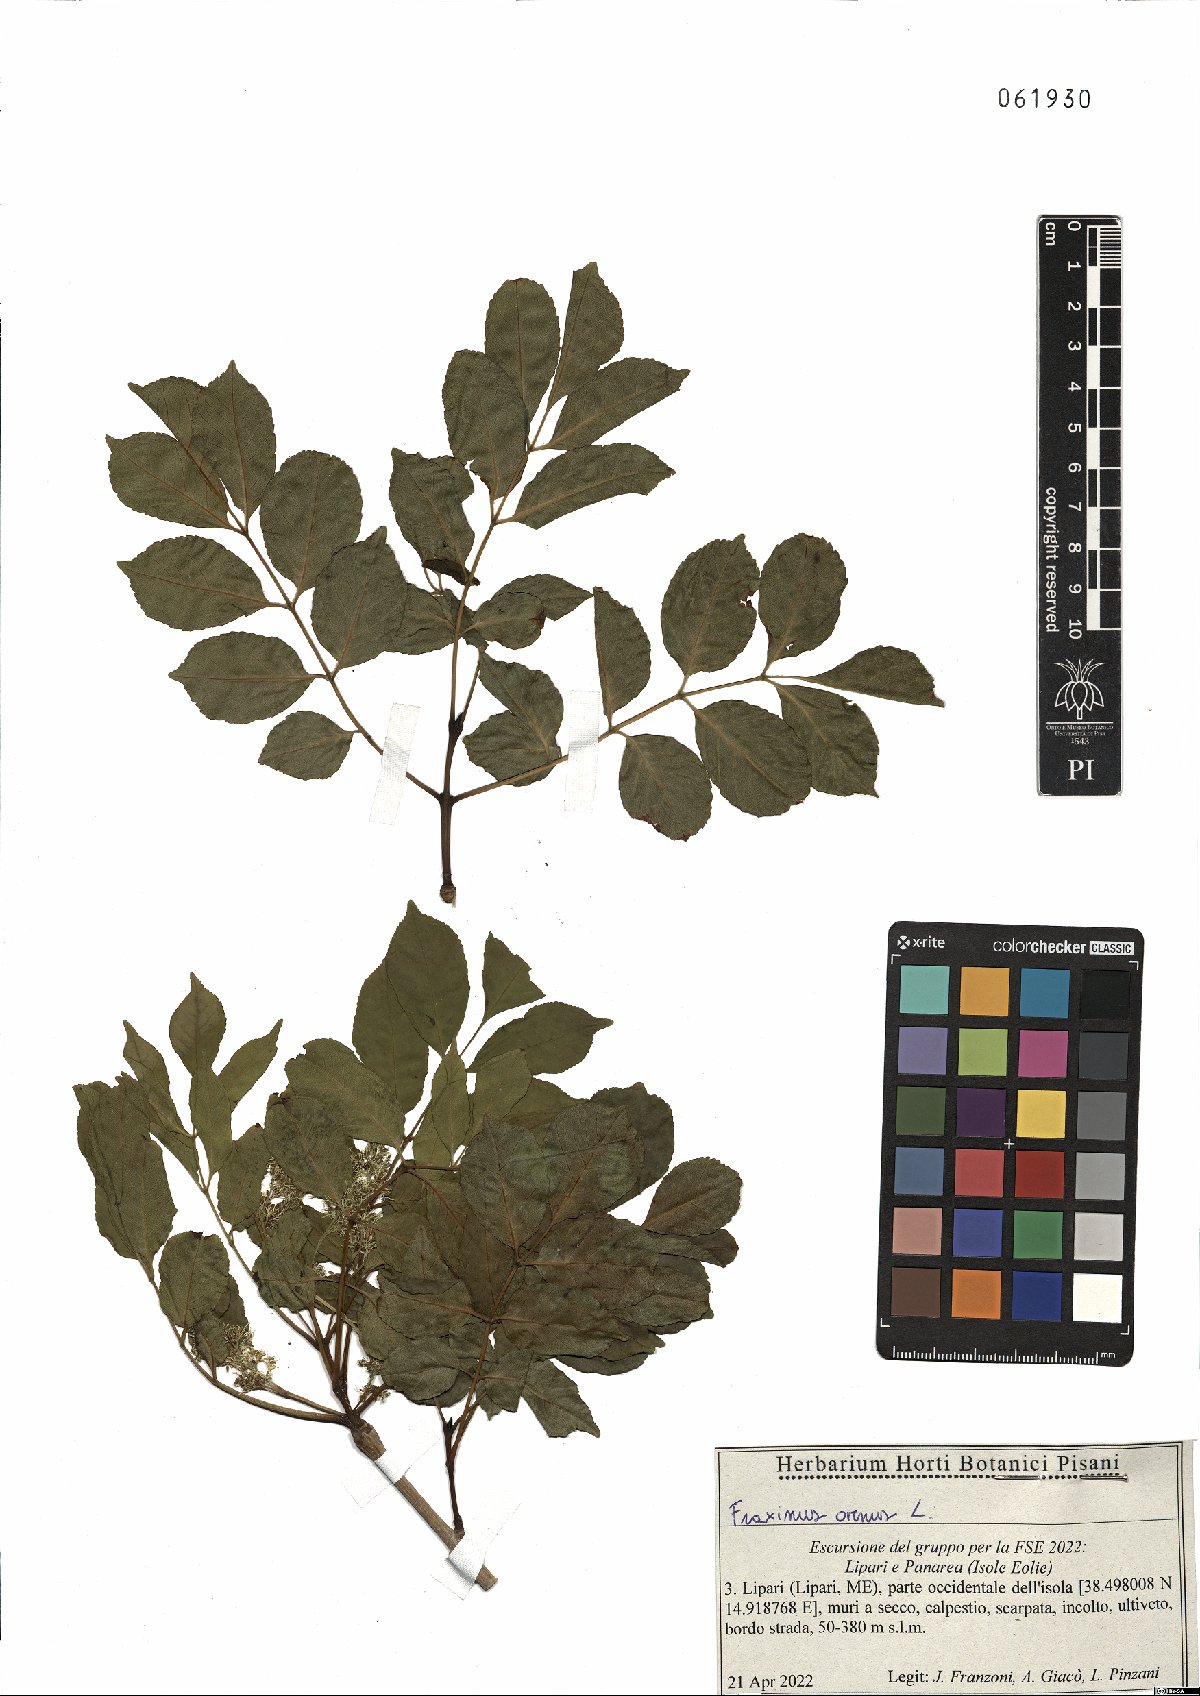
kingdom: Plantae
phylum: Tracheophyta
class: Magnoliopsida
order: Lamiales
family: Oleaceae
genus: Fraxinus
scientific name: Fraxinus ornus
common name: Manna ash
